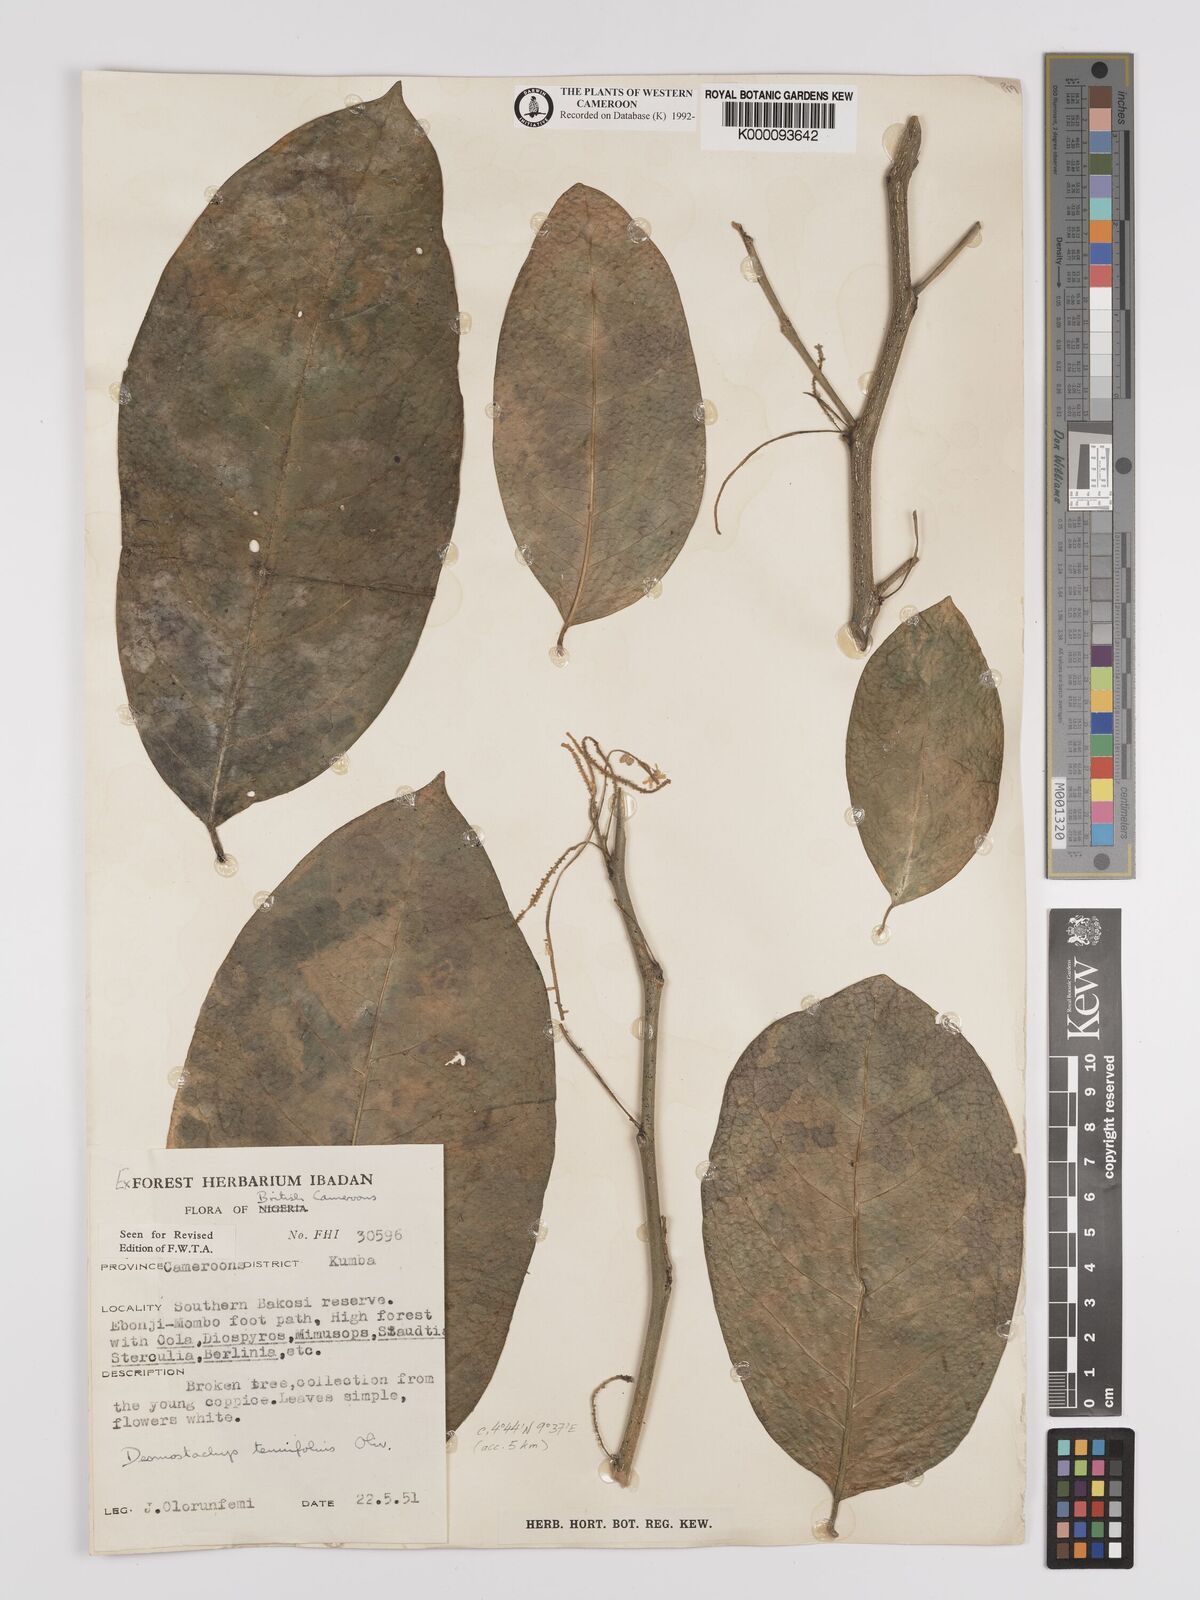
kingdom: Plantae
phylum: Tracheophyta
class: Magnoliopsida
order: Icacinales
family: Icacinaceae
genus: Vadensea
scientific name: Vadensea tenuifolia
